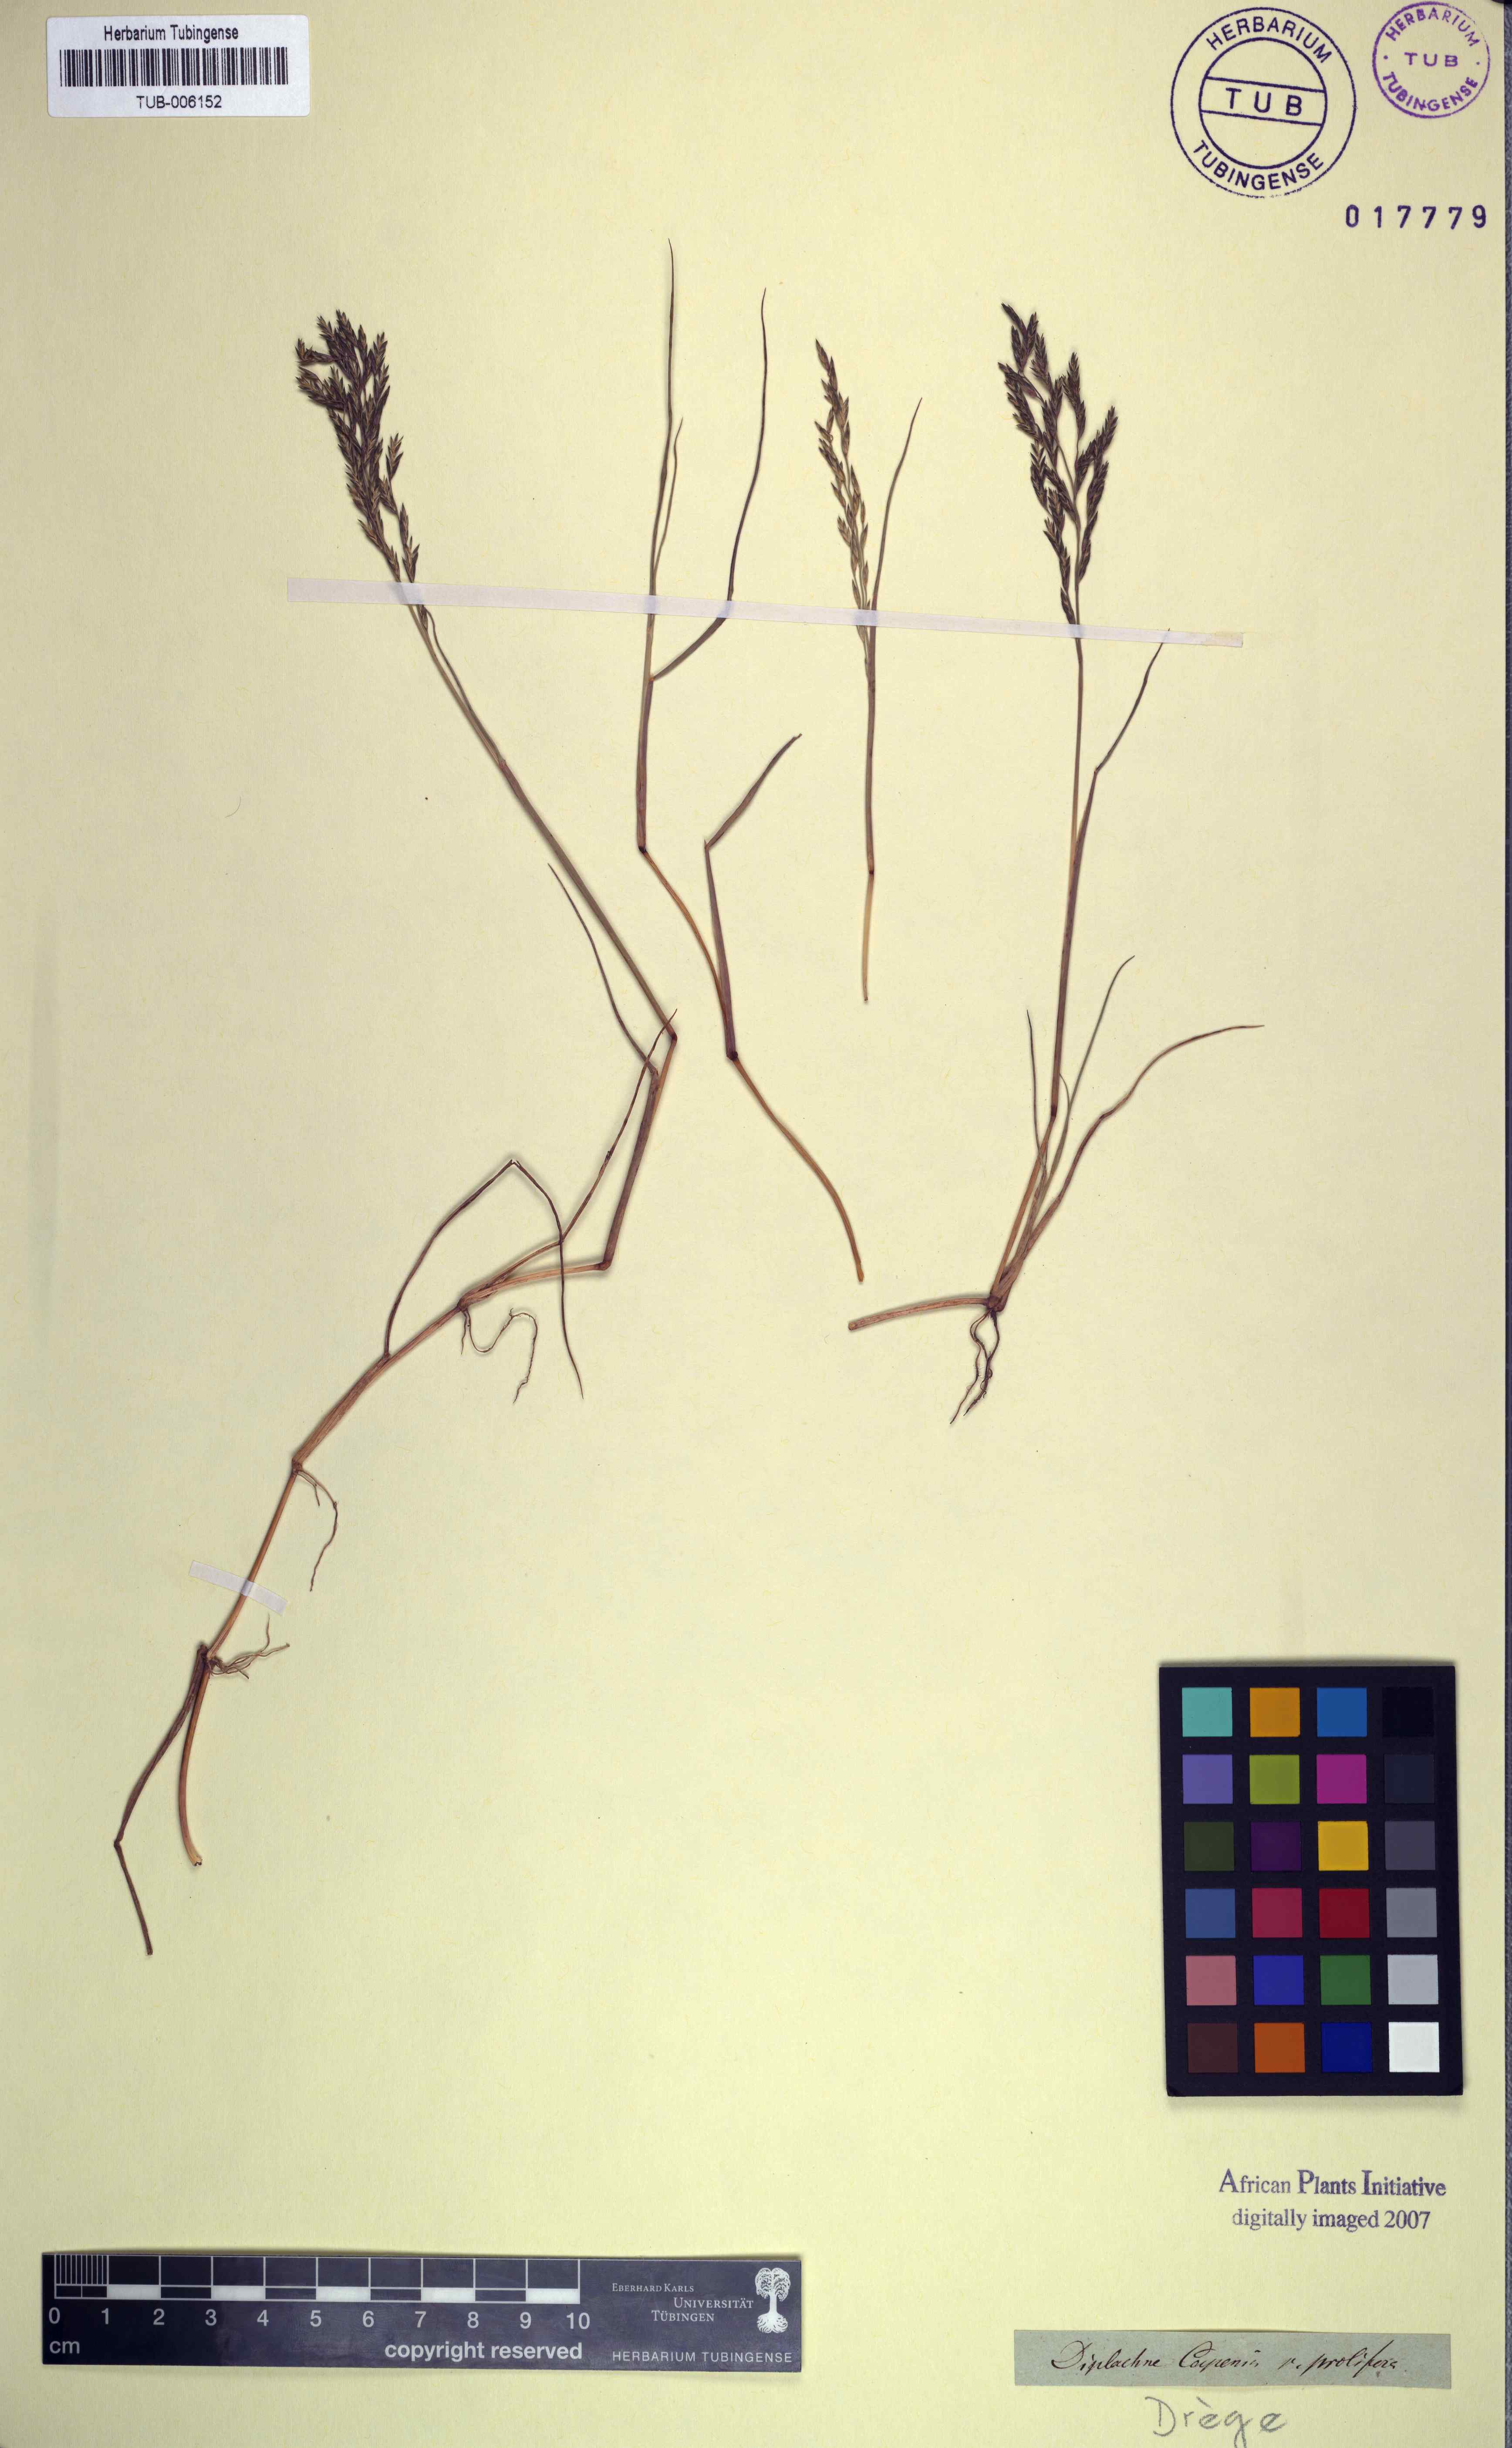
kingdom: Plantae
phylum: Tracheophyta
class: Liliopsida
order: Poales
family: Poaceae
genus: Diplachne
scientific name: Diplachne fusca
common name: Brown beetle grass
